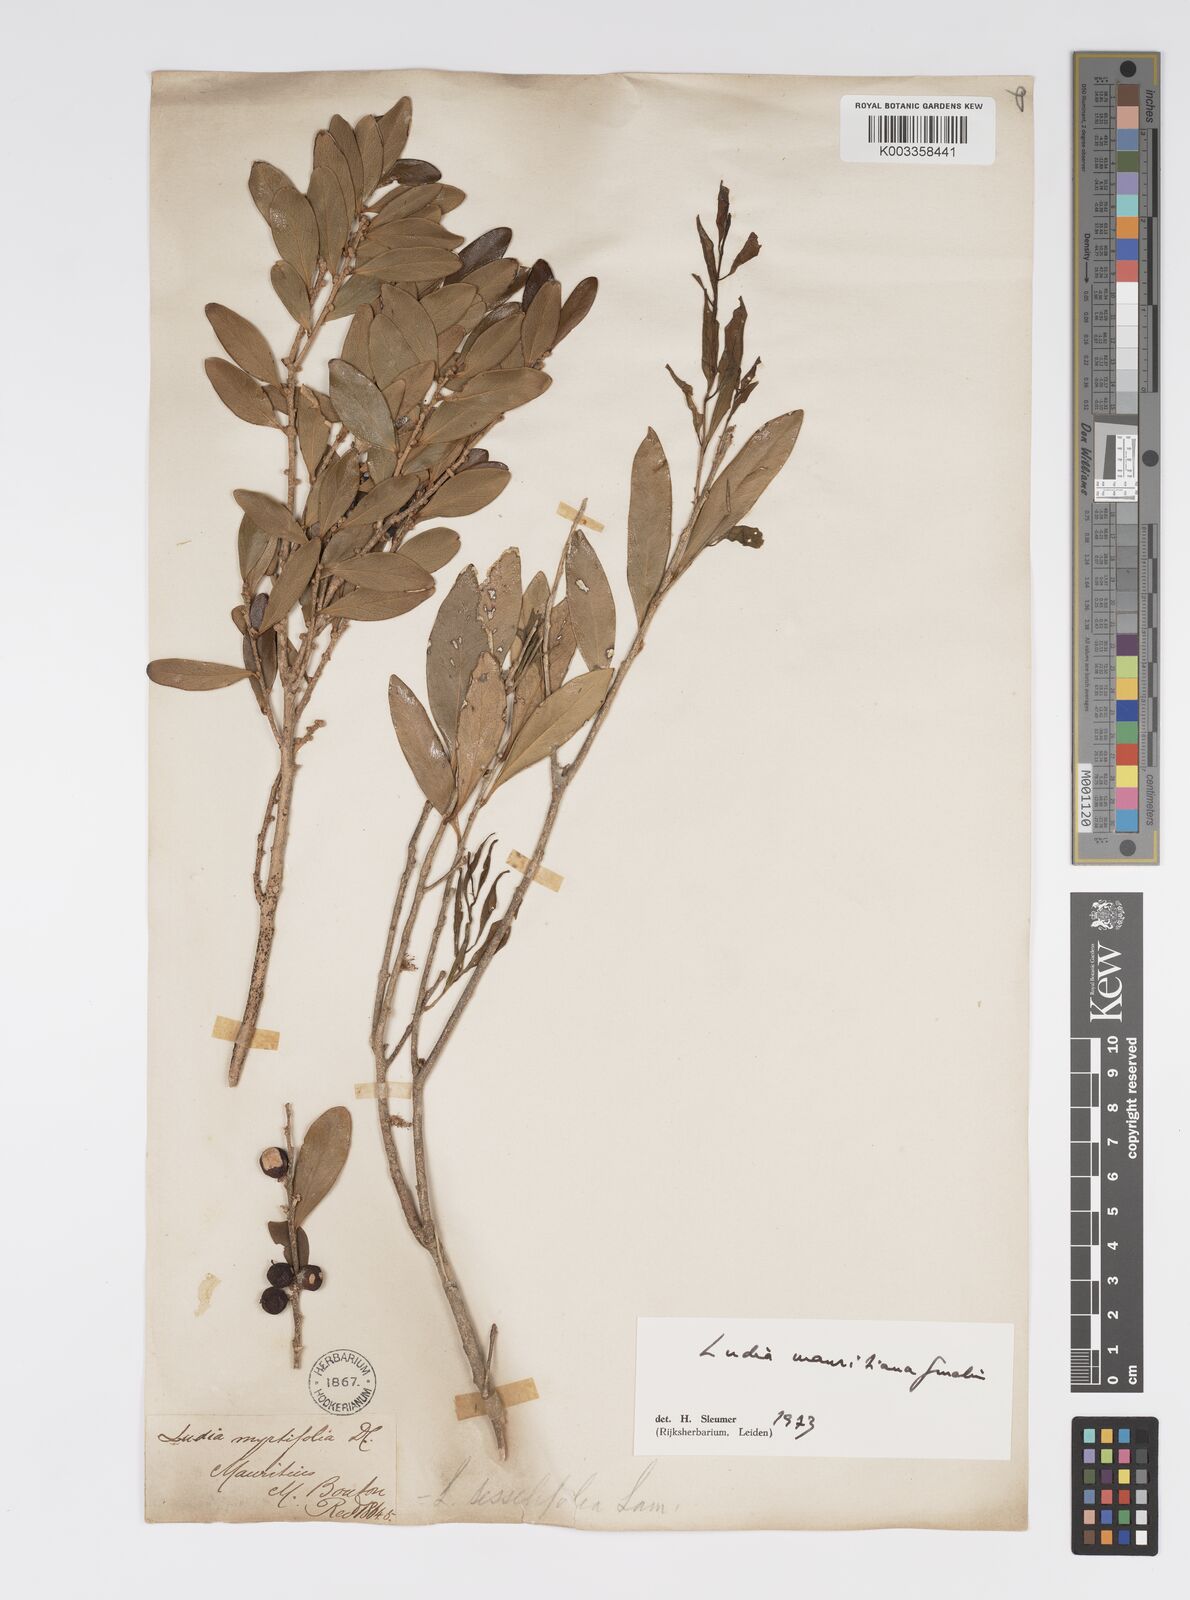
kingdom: Plantae
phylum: Tracheophyta
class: Magnoliopsida
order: Malpighiales
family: Salicaceae
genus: Ludia
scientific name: Ludia mauritiana
